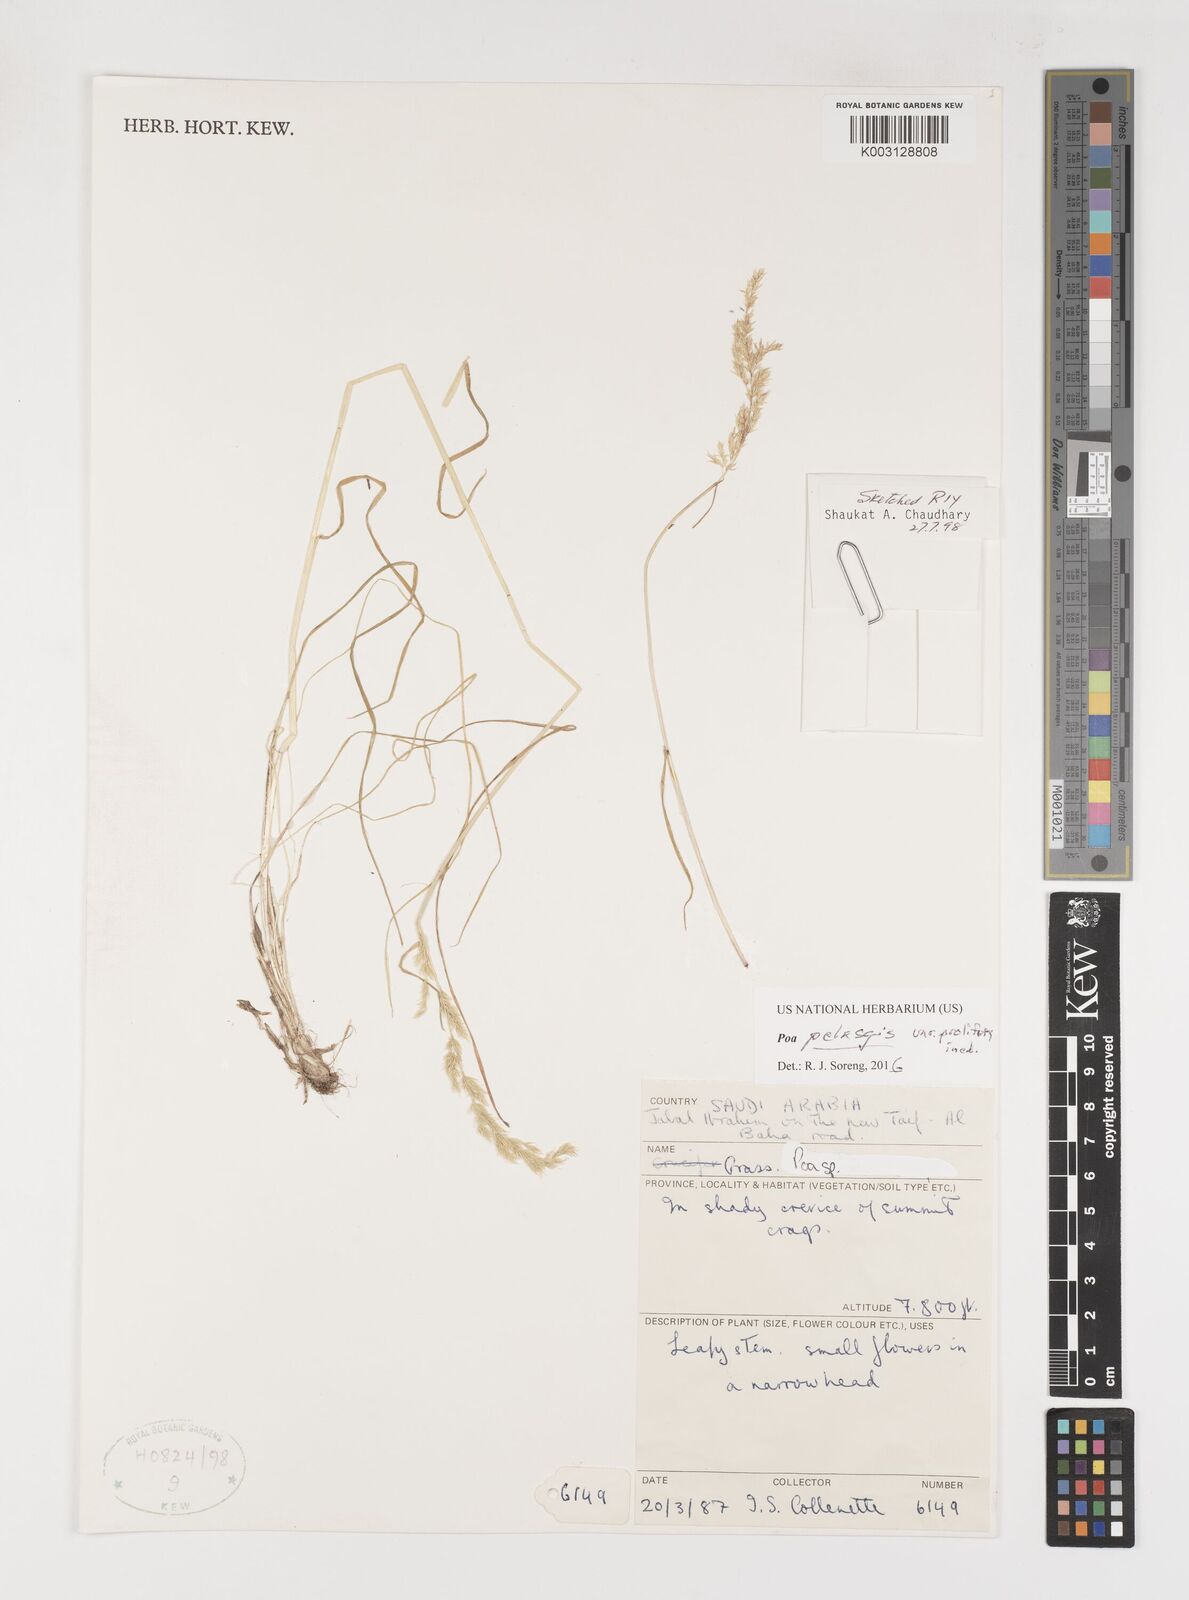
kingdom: Plantae
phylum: Tracheophyta
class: Liliopsida
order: Poales
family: Poaceae
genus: Poa
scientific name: Poa iconia
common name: Konya bluegrass
